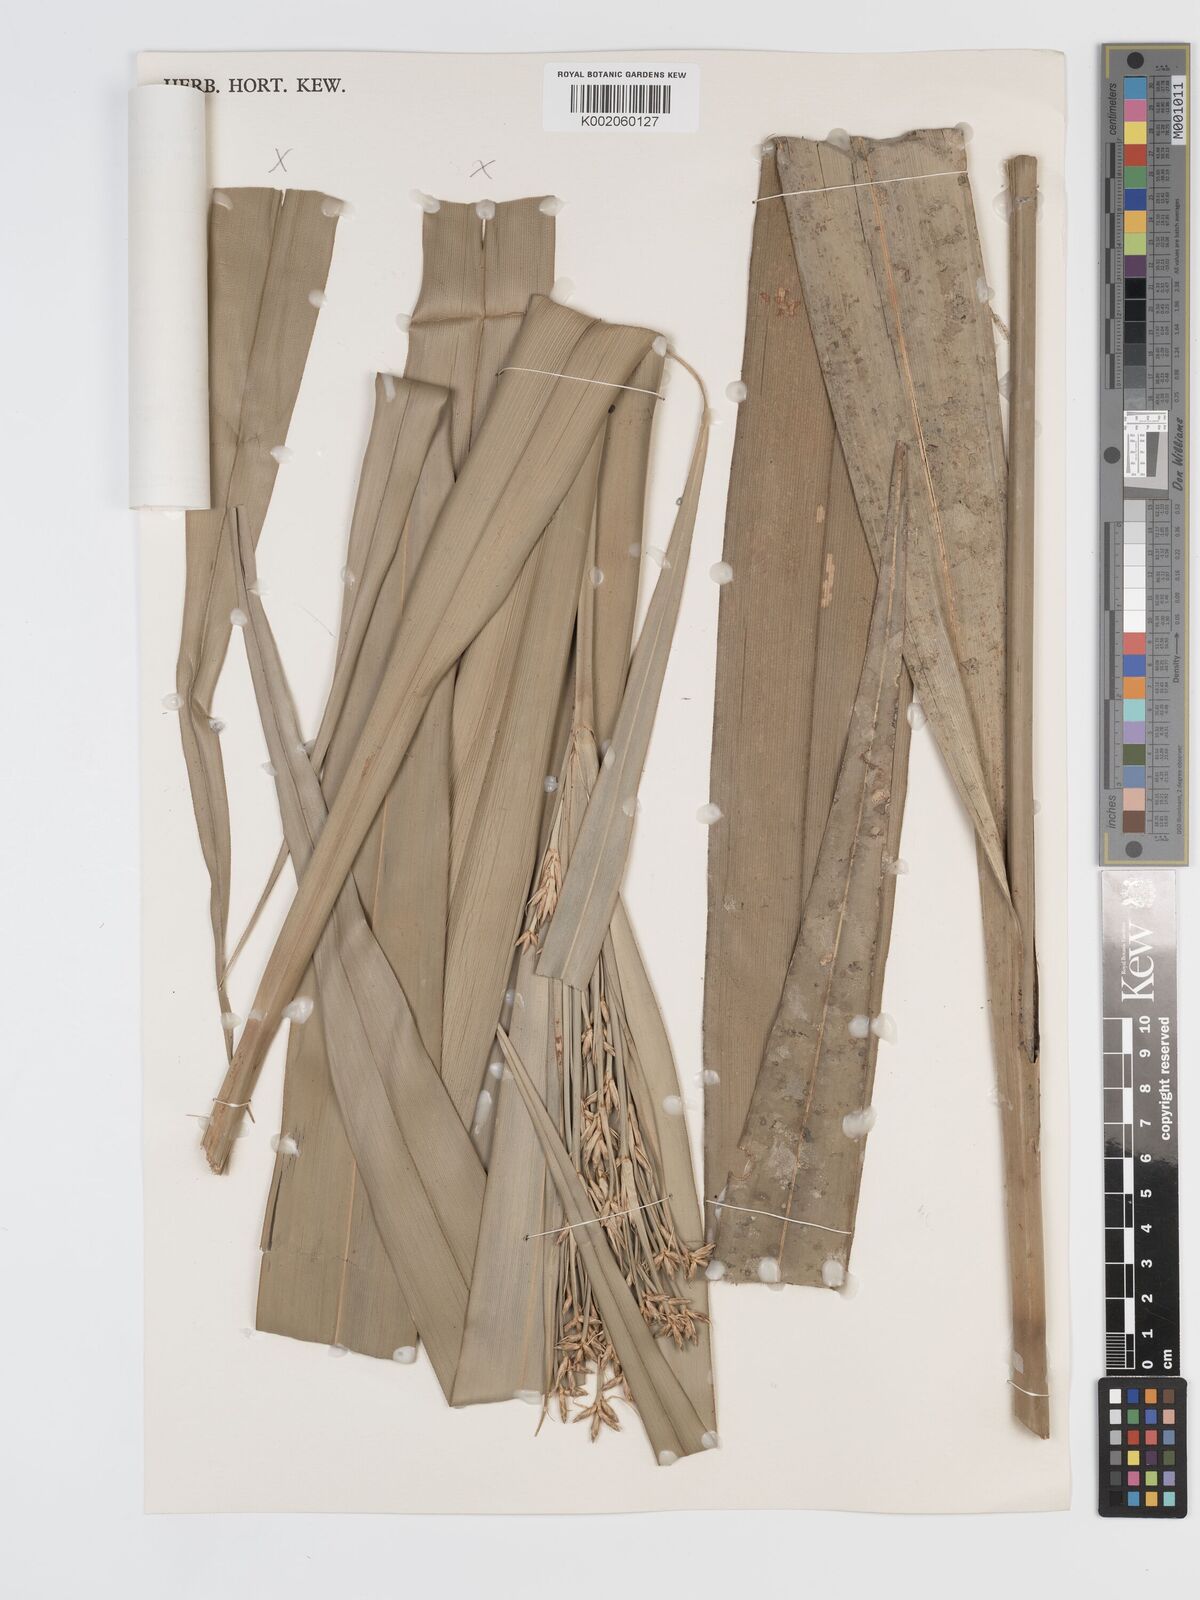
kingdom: Plantae
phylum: Tracheophyta
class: Liliopsida
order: Poales
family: Cyperaceae
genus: Diplasia
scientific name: Diplasia karatifolia
